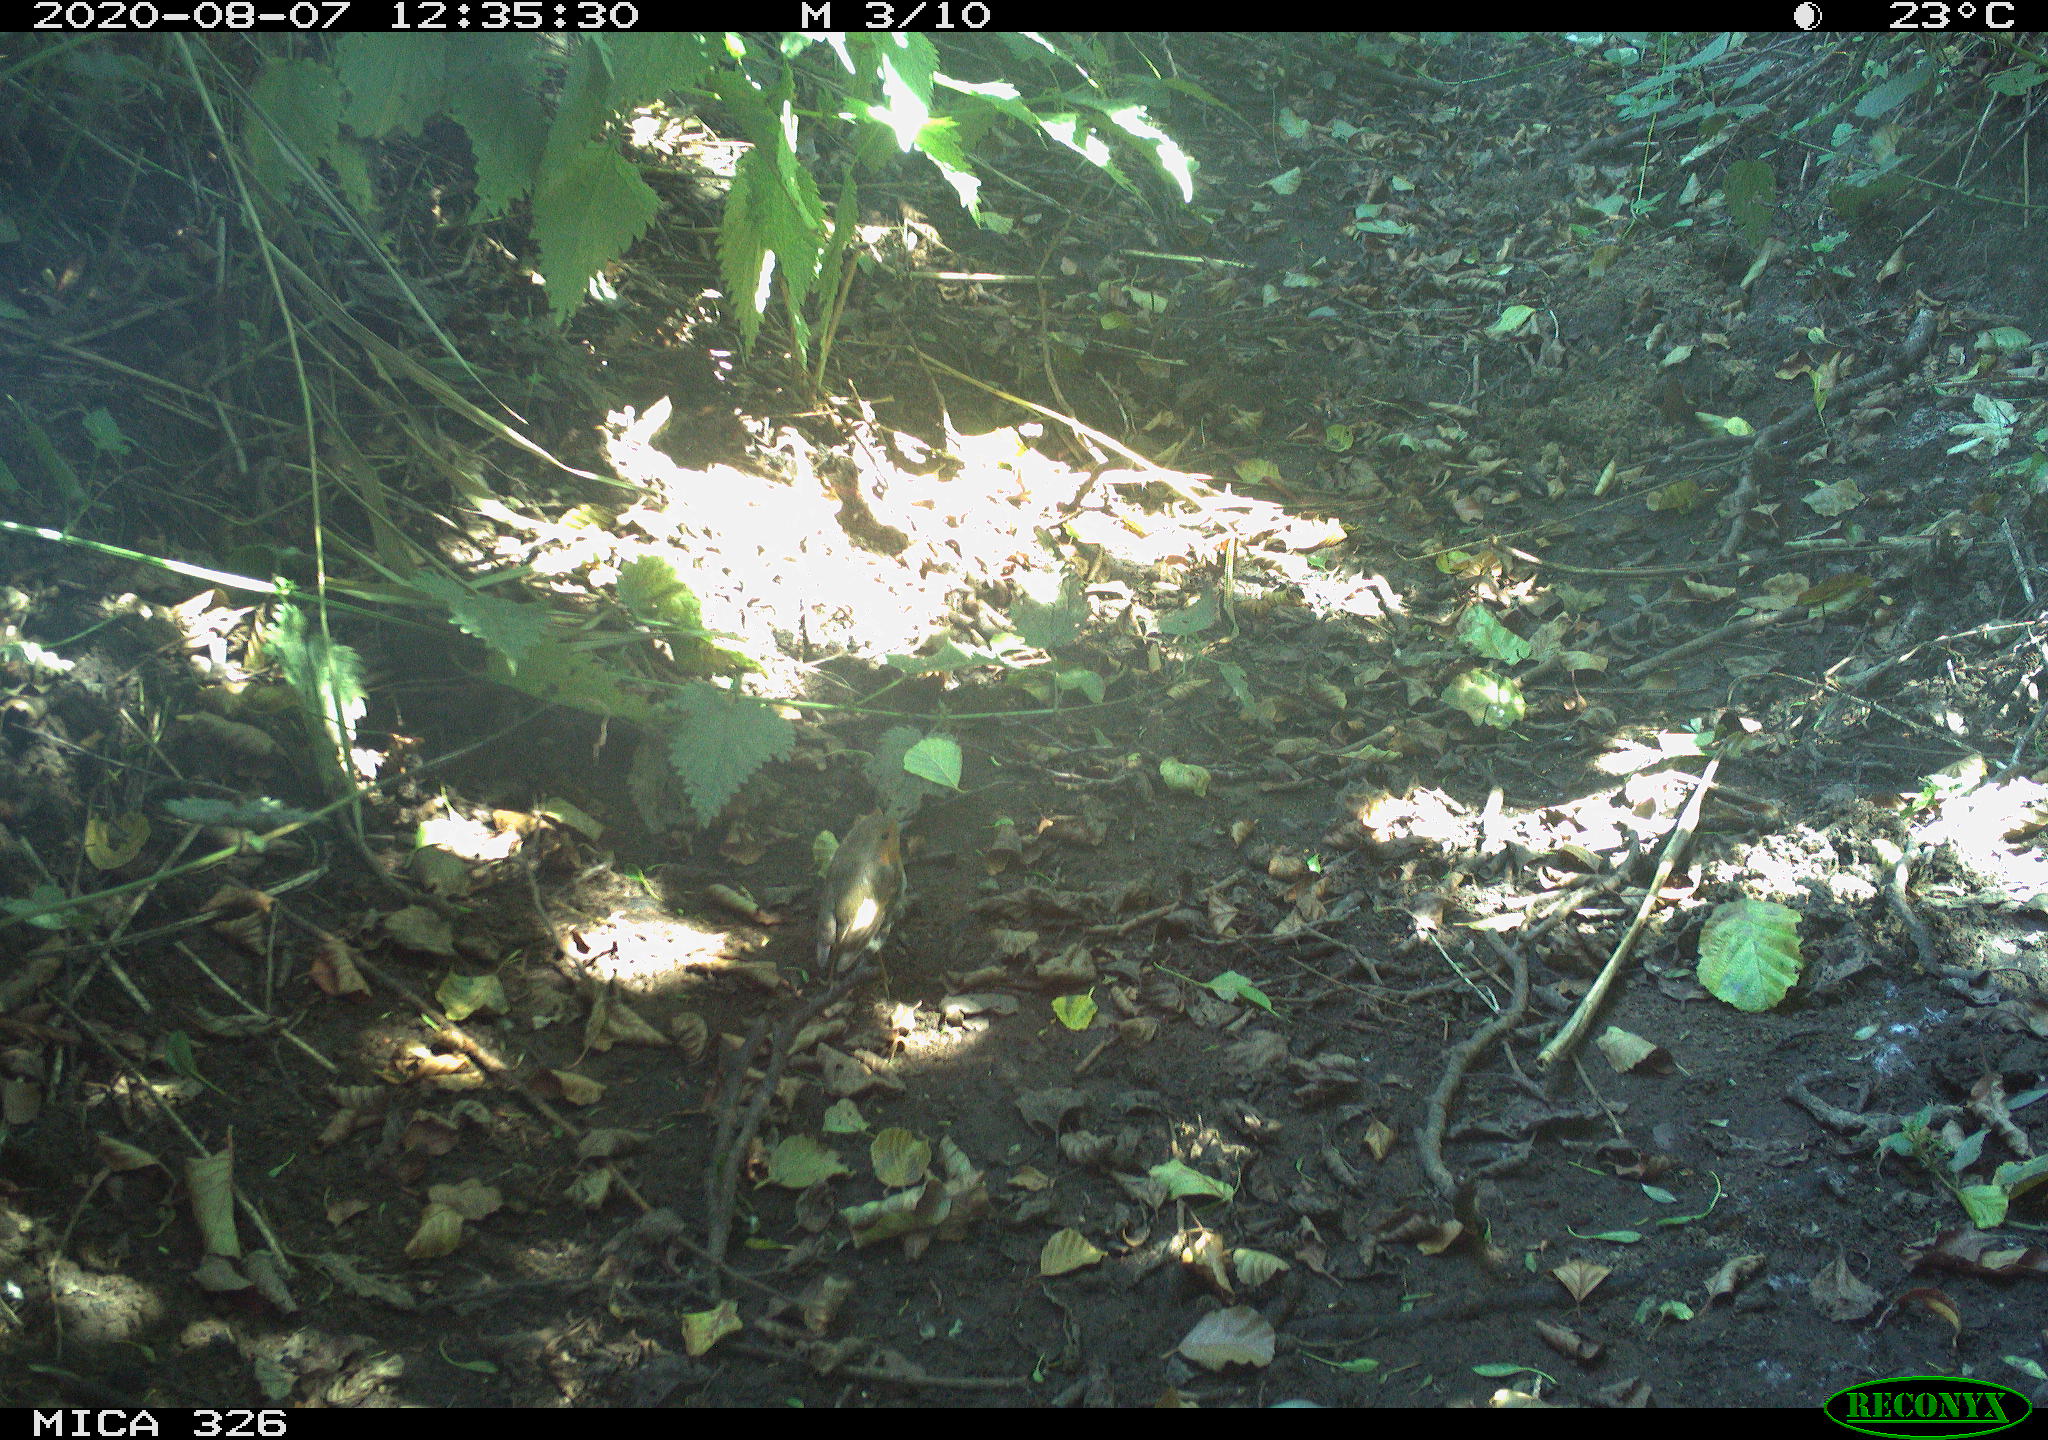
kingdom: Animalia
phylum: Chordata
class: Aves
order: Passeriformes
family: Muscicapidae
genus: Erithacus
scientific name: Erithacus rubecula
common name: European robin
